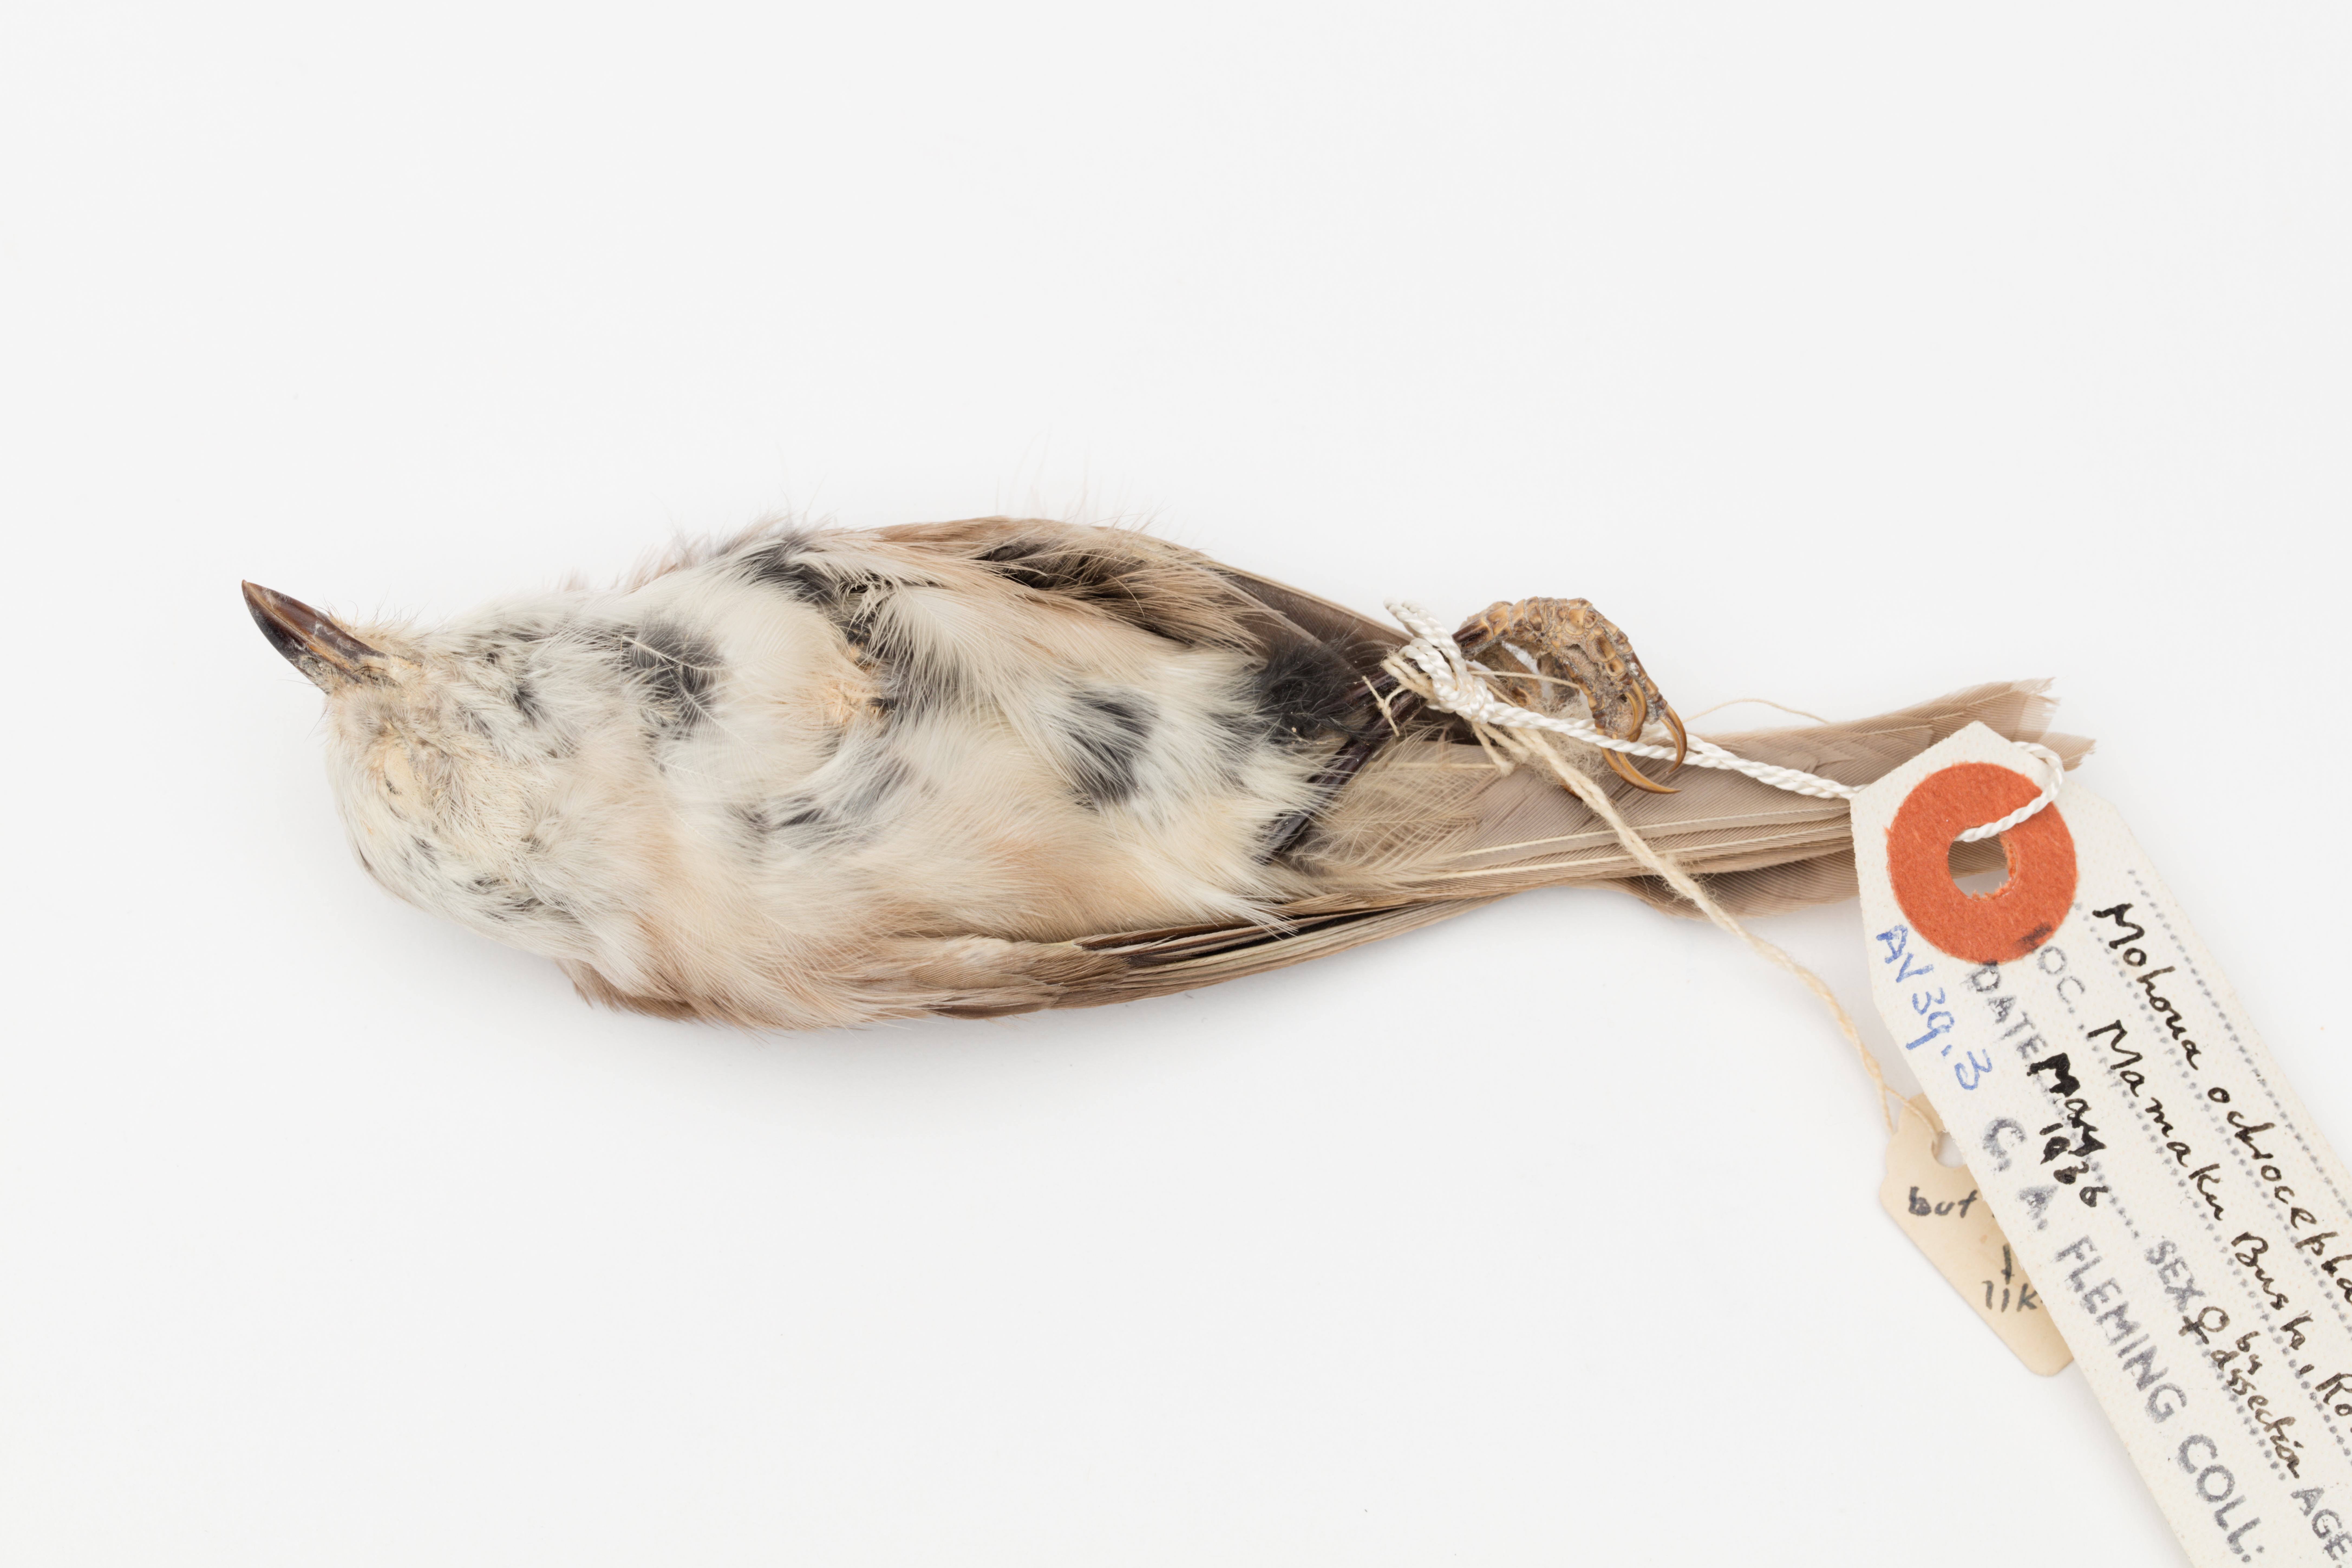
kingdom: Animalia
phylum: Chordata
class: Aves
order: Passeriformes
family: Acanthizidae
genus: Mohoua
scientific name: Mohoua albicilla
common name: Whitehead
